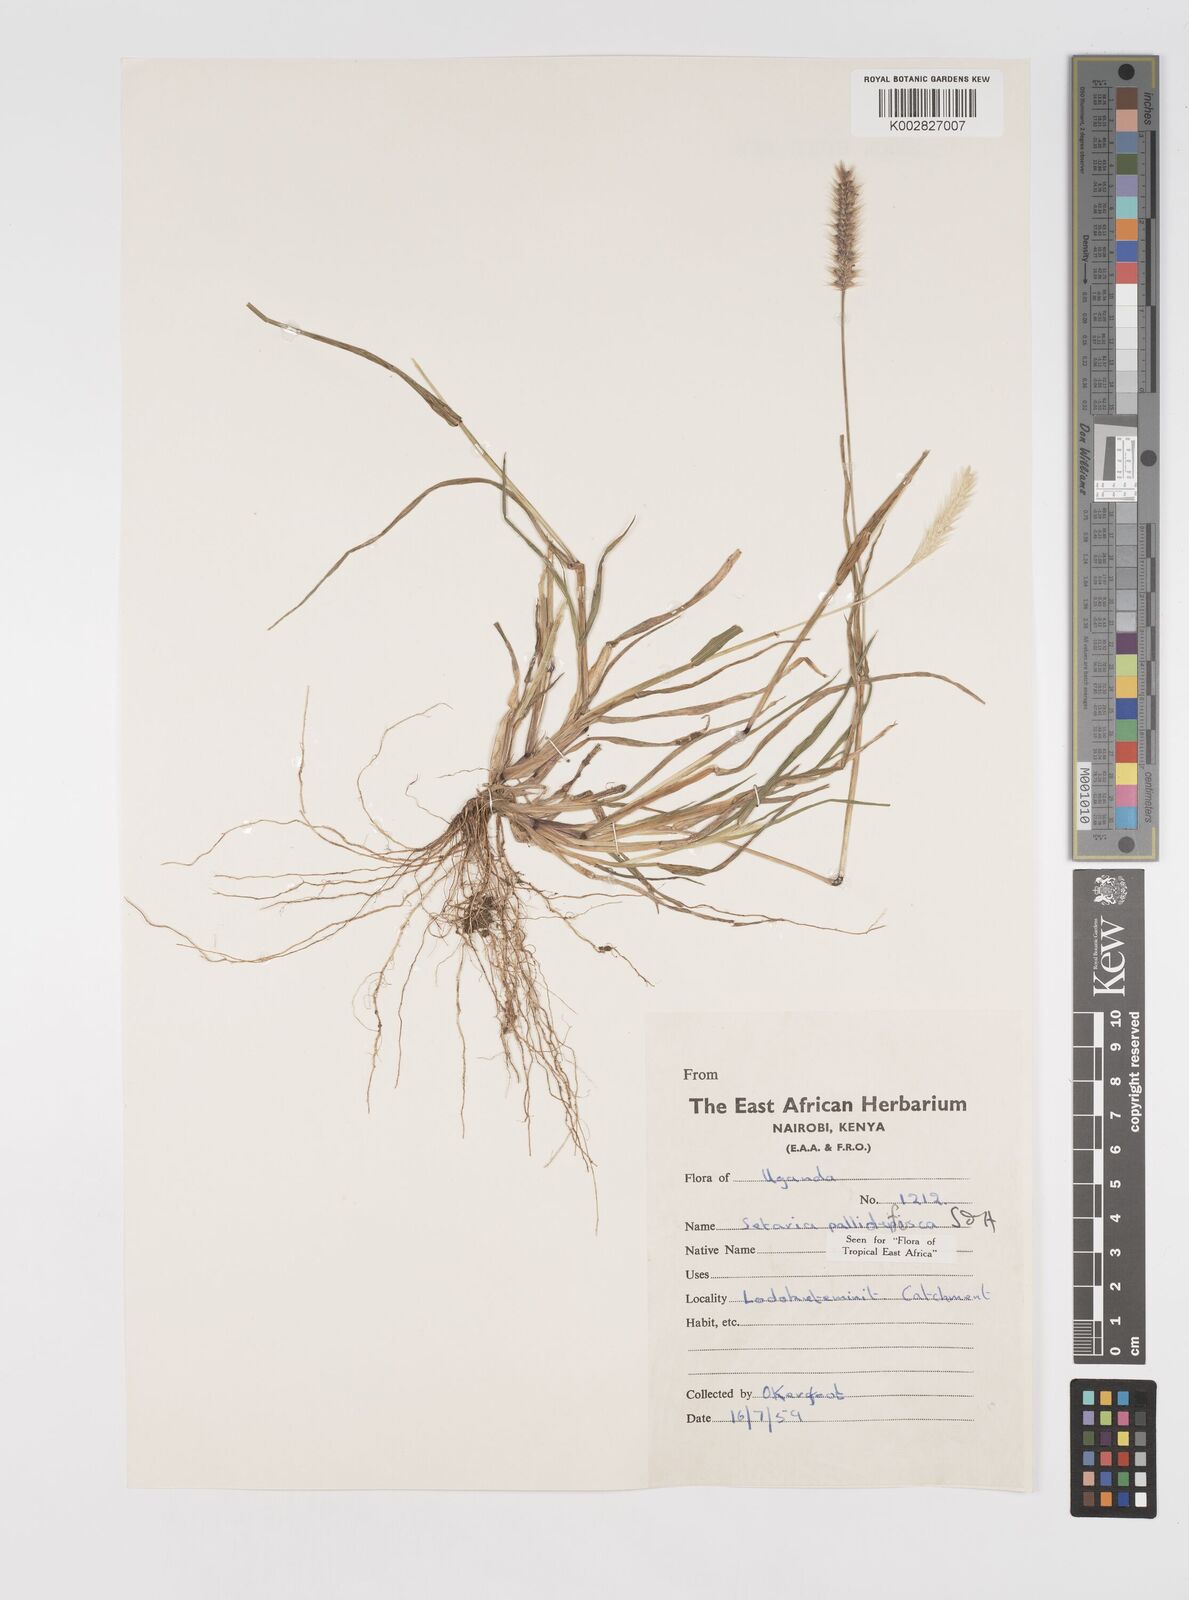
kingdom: Plantae
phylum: Tracheophyta
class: Liliopsida
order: Poales
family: Poaceae
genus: Setaria
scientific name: Setaria pumila
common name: Yellow bristle-grass
